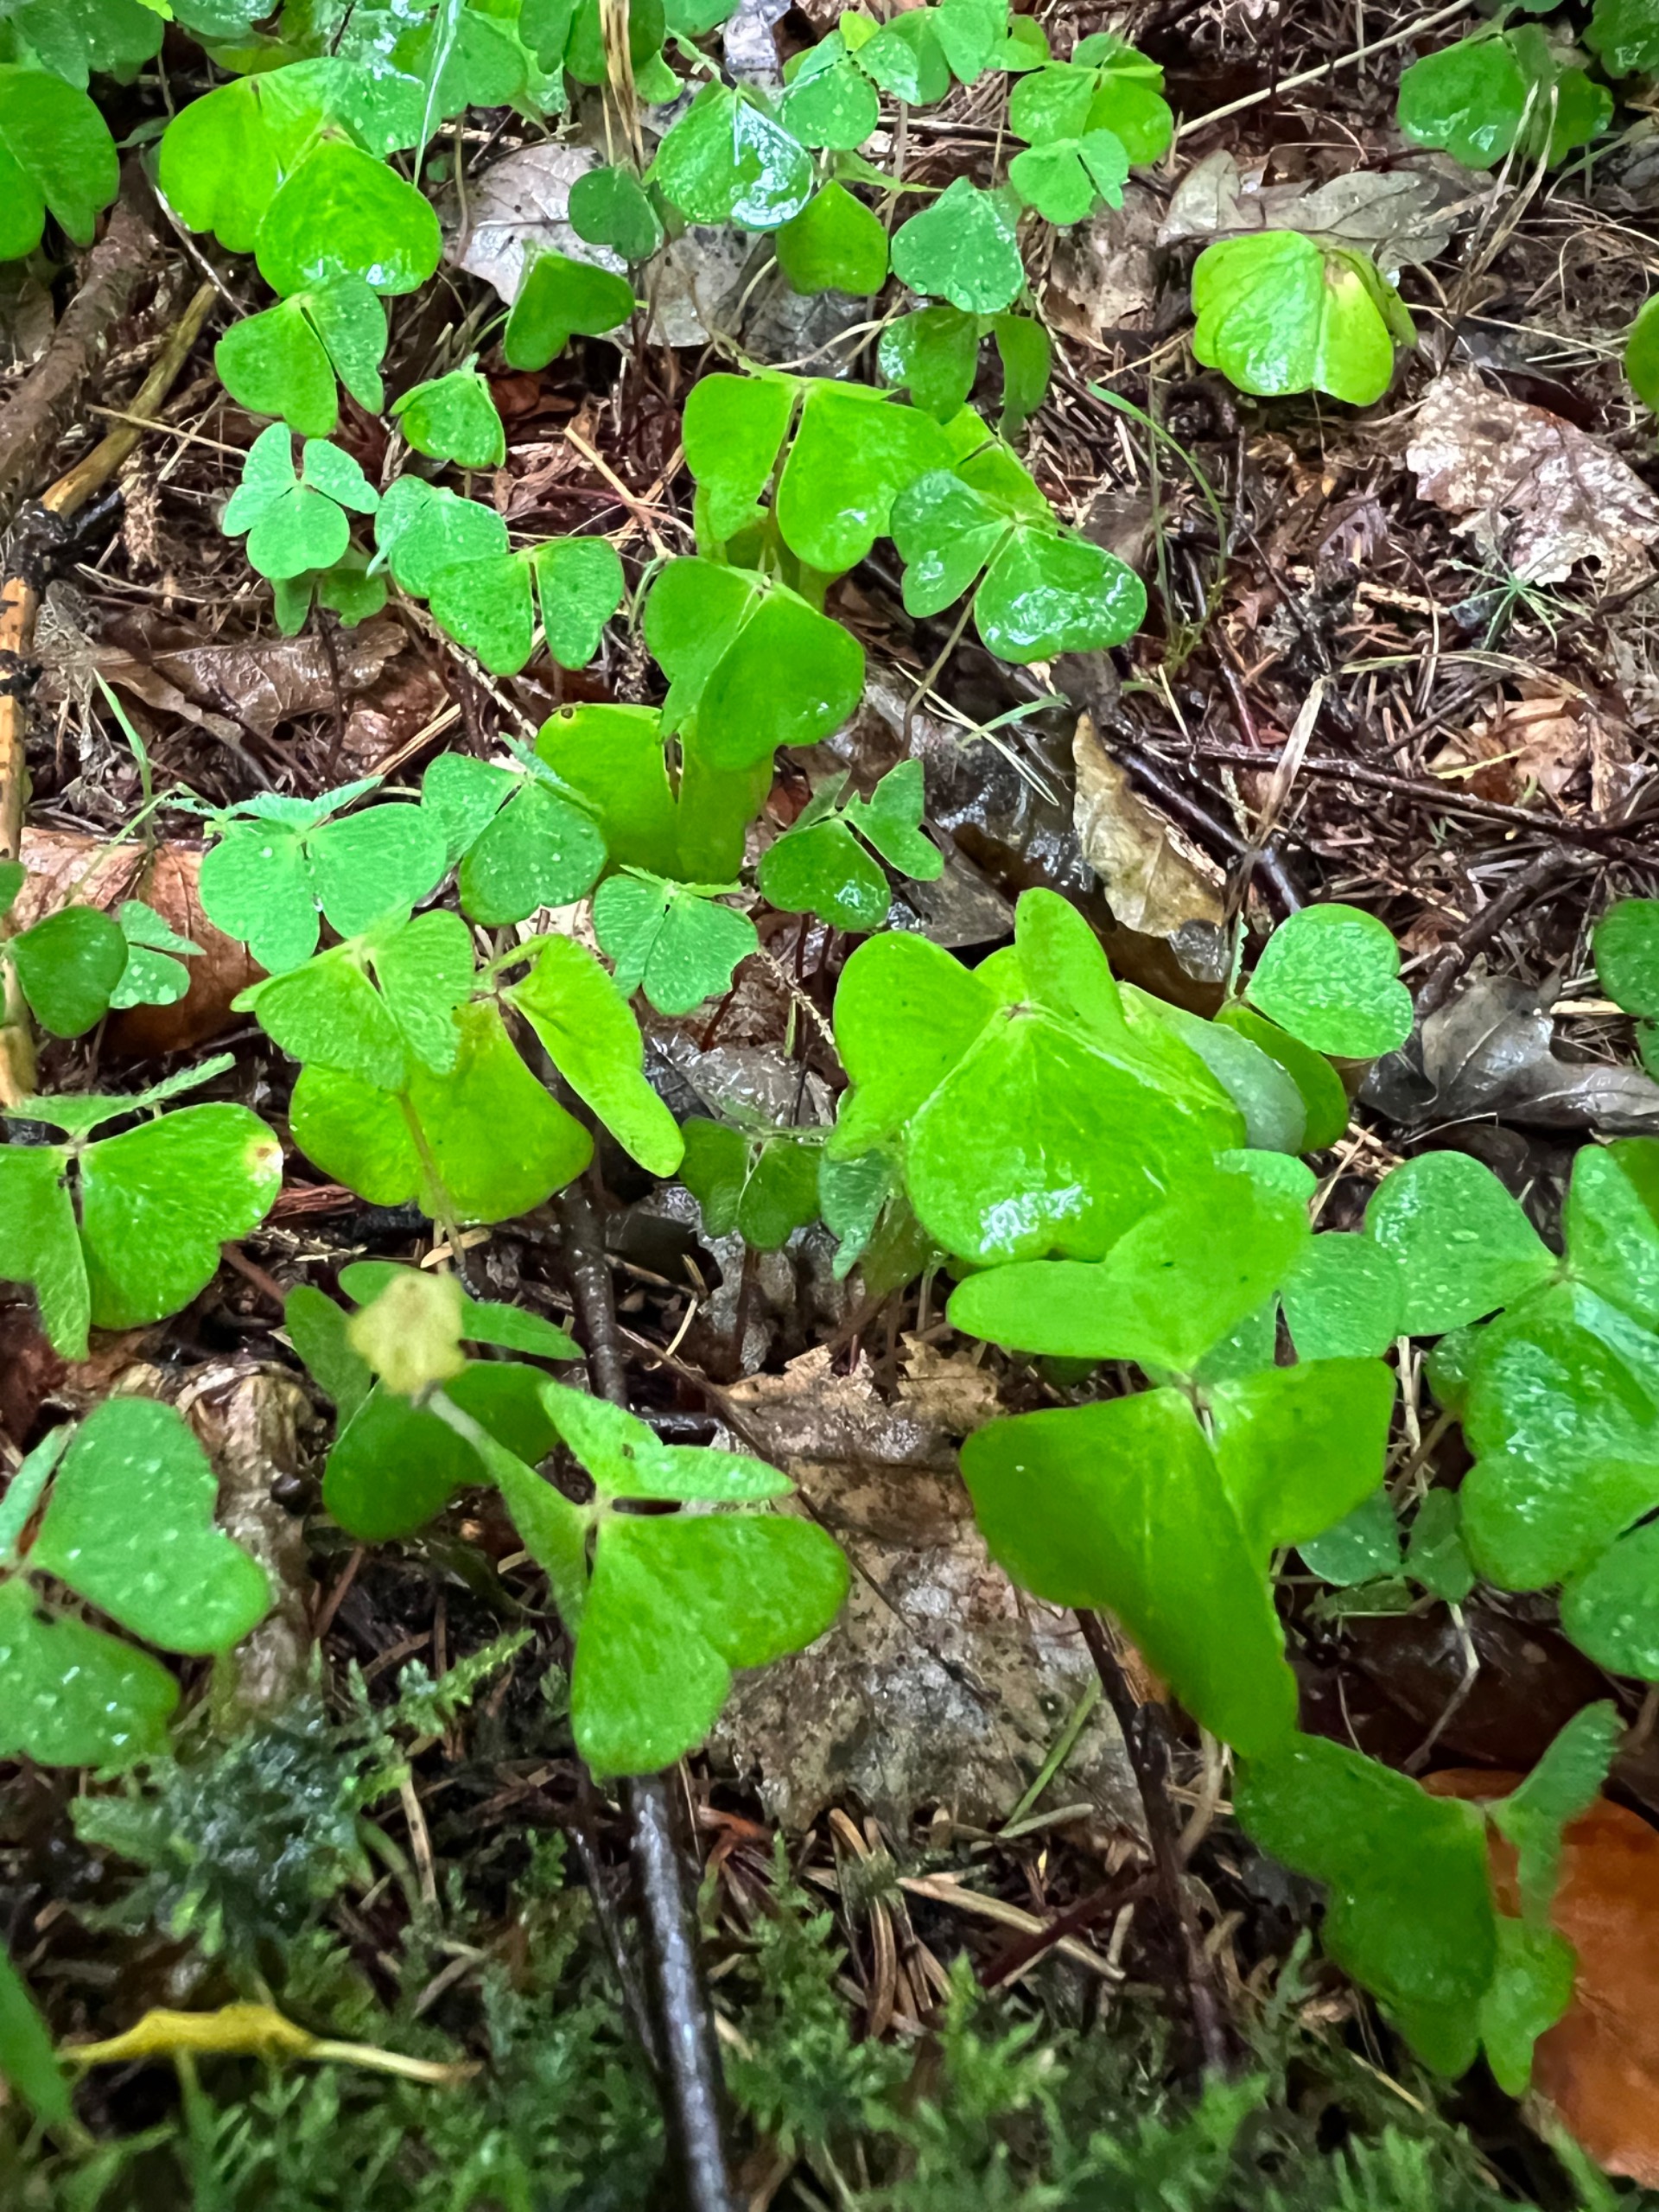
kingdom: Plantae
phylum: Tracheophyta
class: Magnoliopsida
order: Oxalidales
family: Oxalidaceae
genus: Oxalis
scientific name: Oxalis acetosella
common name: Skovsyre
